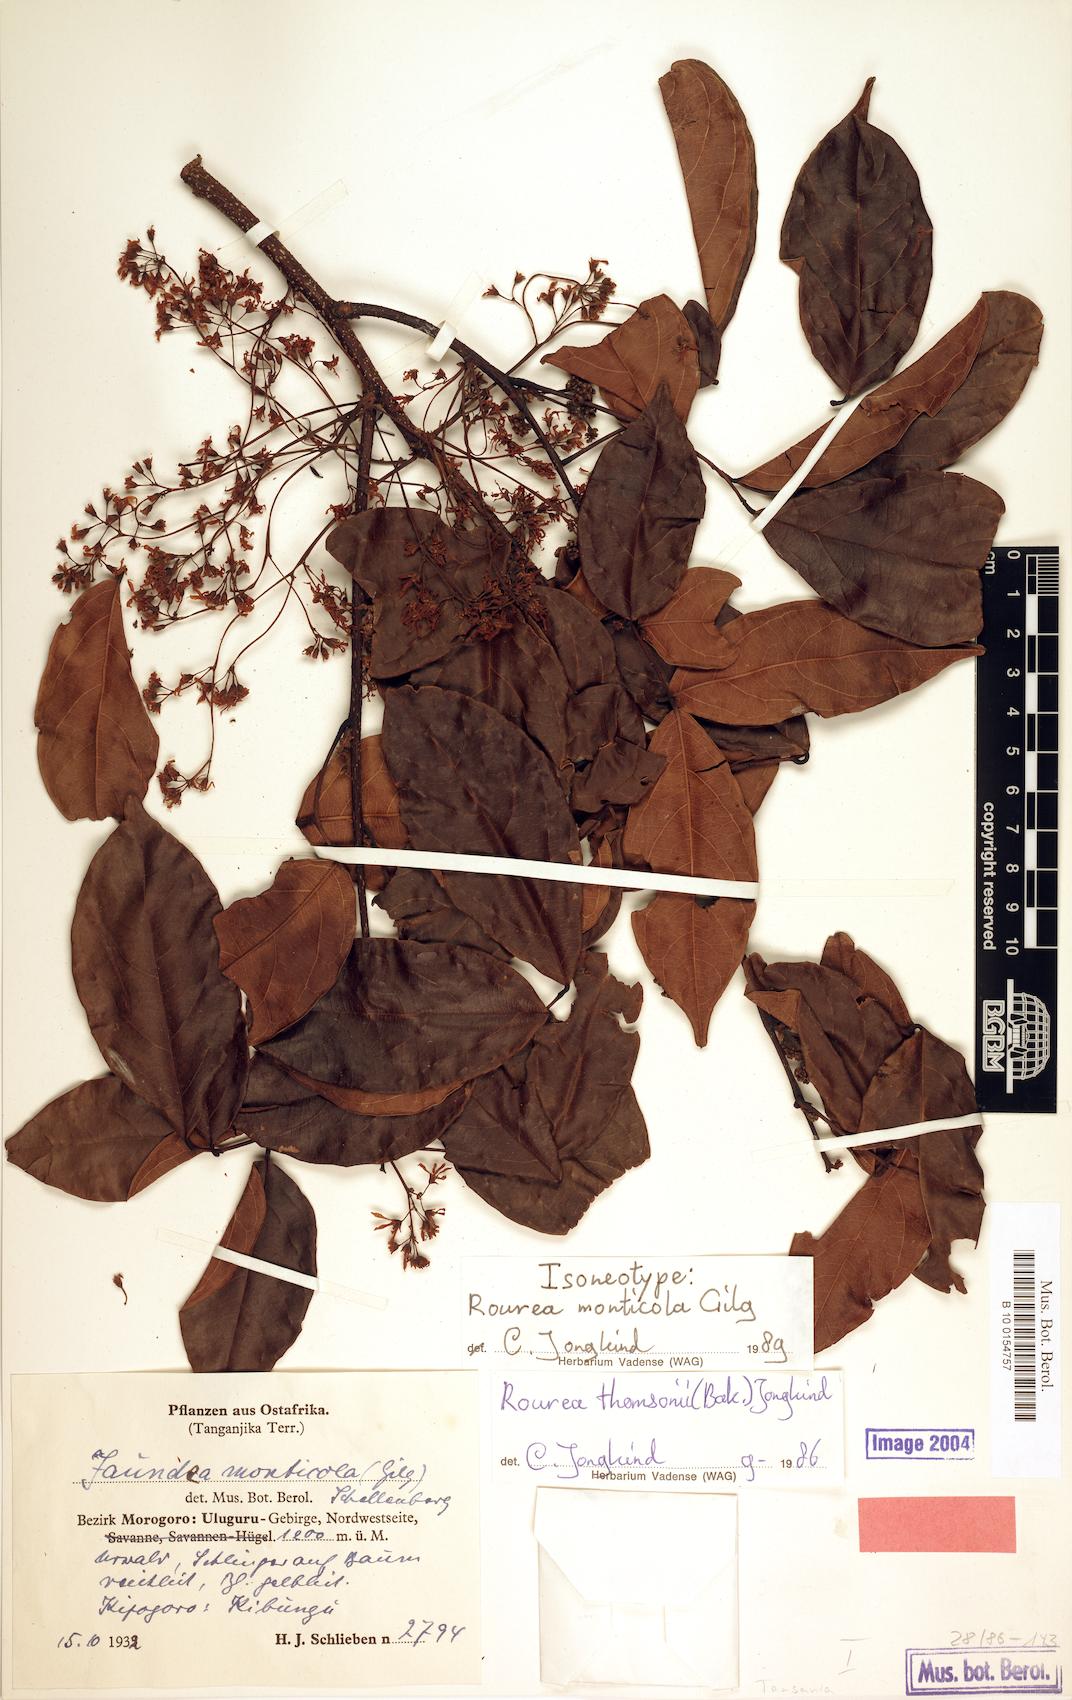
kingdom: Plantae
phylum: Tracheophyta
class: Magnoliopsida
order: Oxalidales
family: Connaraceae
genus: Rourea
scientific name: Rourea thomsonii
